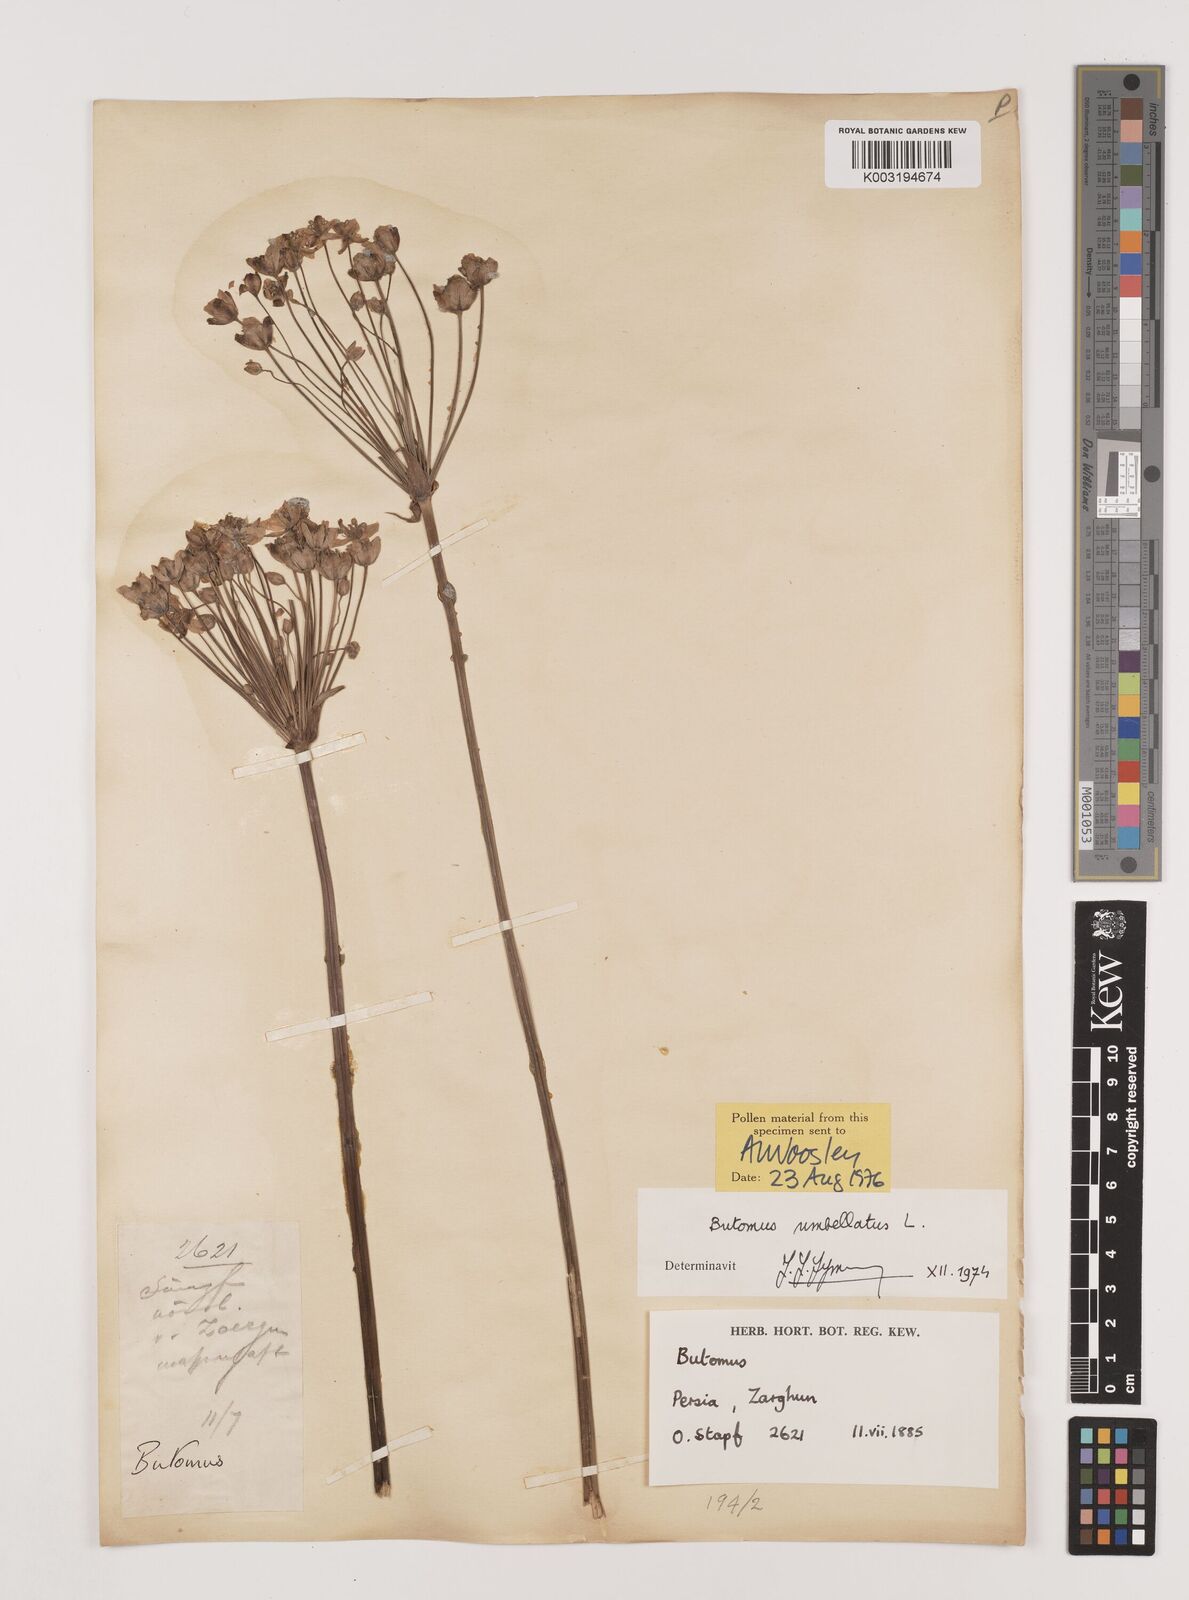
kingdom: Plantae
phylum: Tracheophyta
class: Liliopsida
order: Alismatales
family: Butomaceae
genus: Butomus
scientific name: Butomus umbellatus
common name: Flowering-rush
